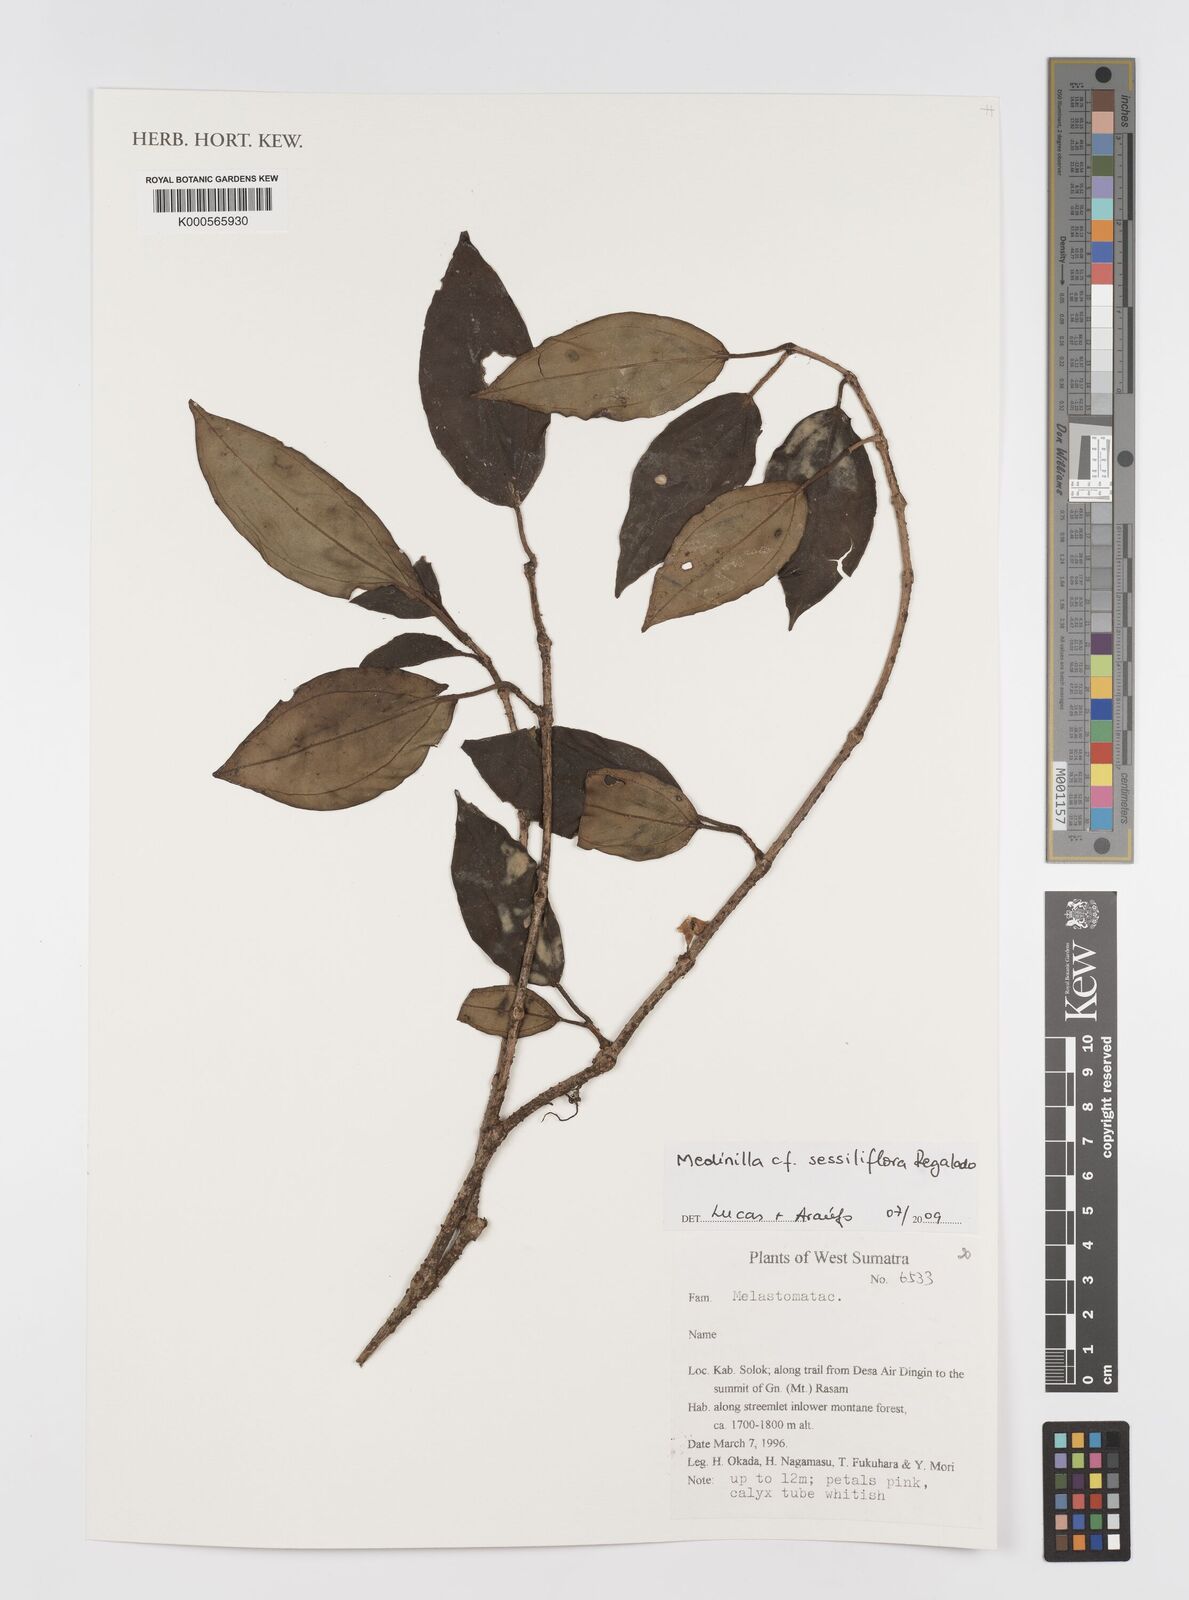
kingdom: Plantae
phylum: Tracheophyta
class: Magnoliopsida
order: Myrtales
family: Melastomataceae
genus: Medinilla
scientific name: Medinilla sessiliflora
